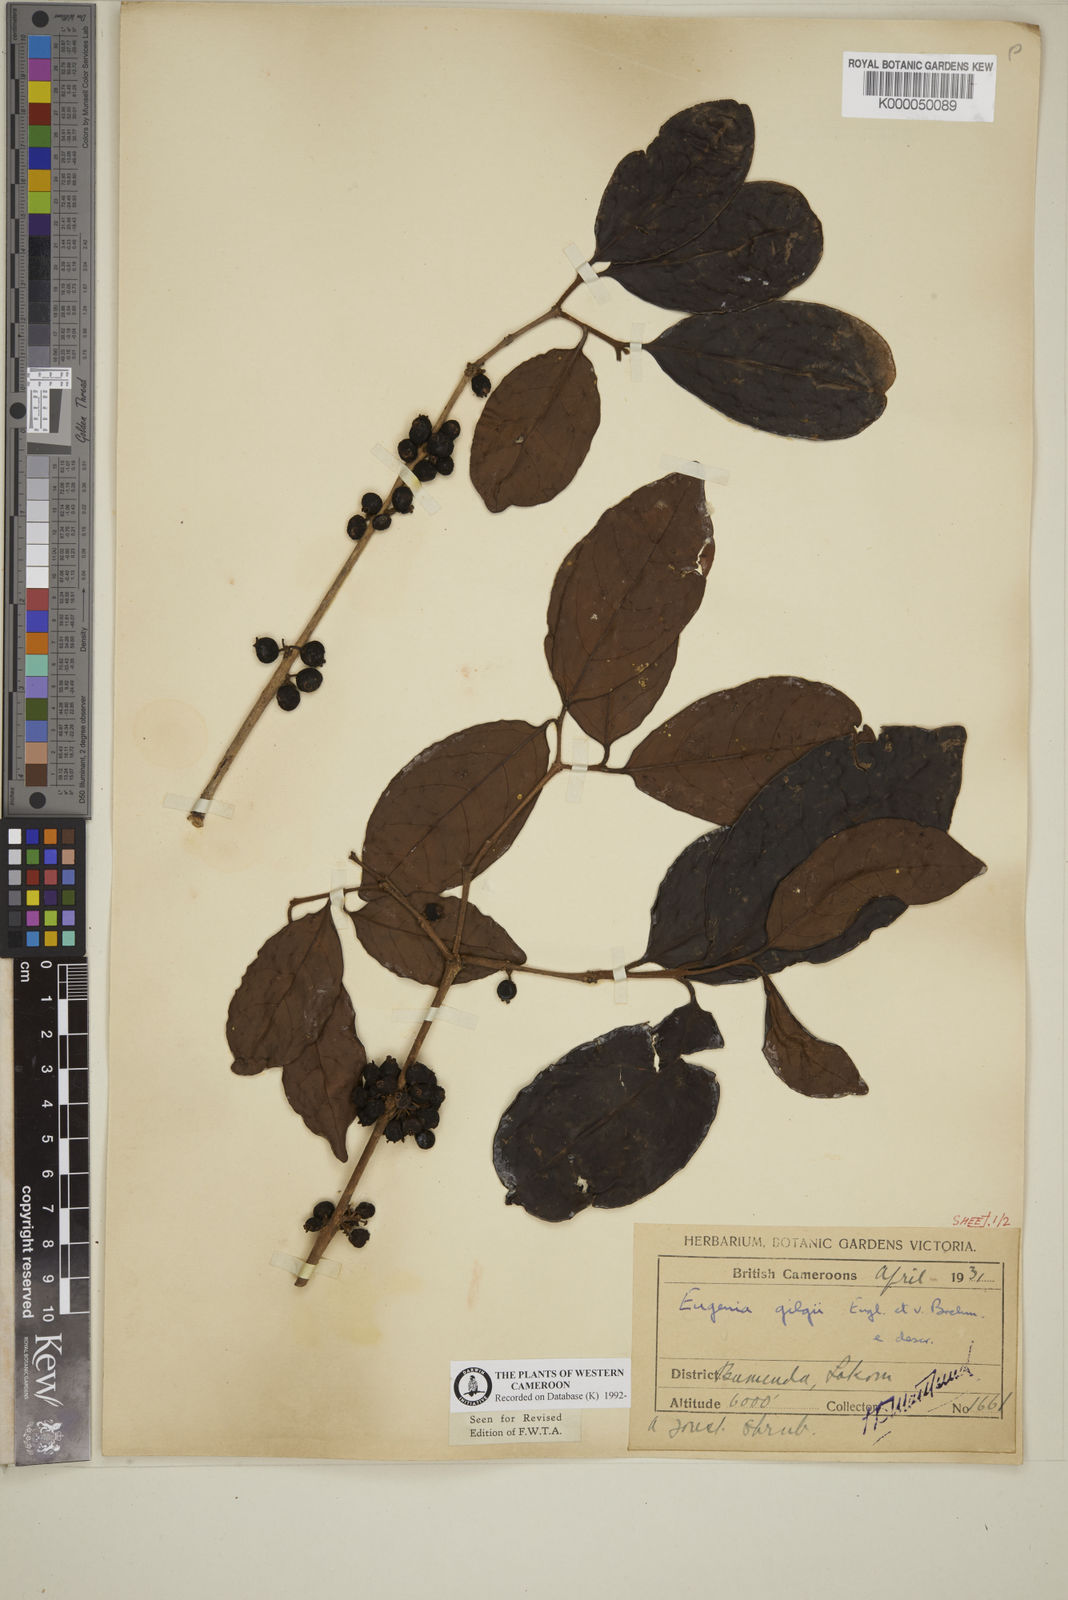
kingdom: Plantae
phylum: Tracheophyta
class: Magnoliopsida
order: Myrtales
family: Myrtaceae
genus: Eugenia
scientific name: Eugenia gilgii
